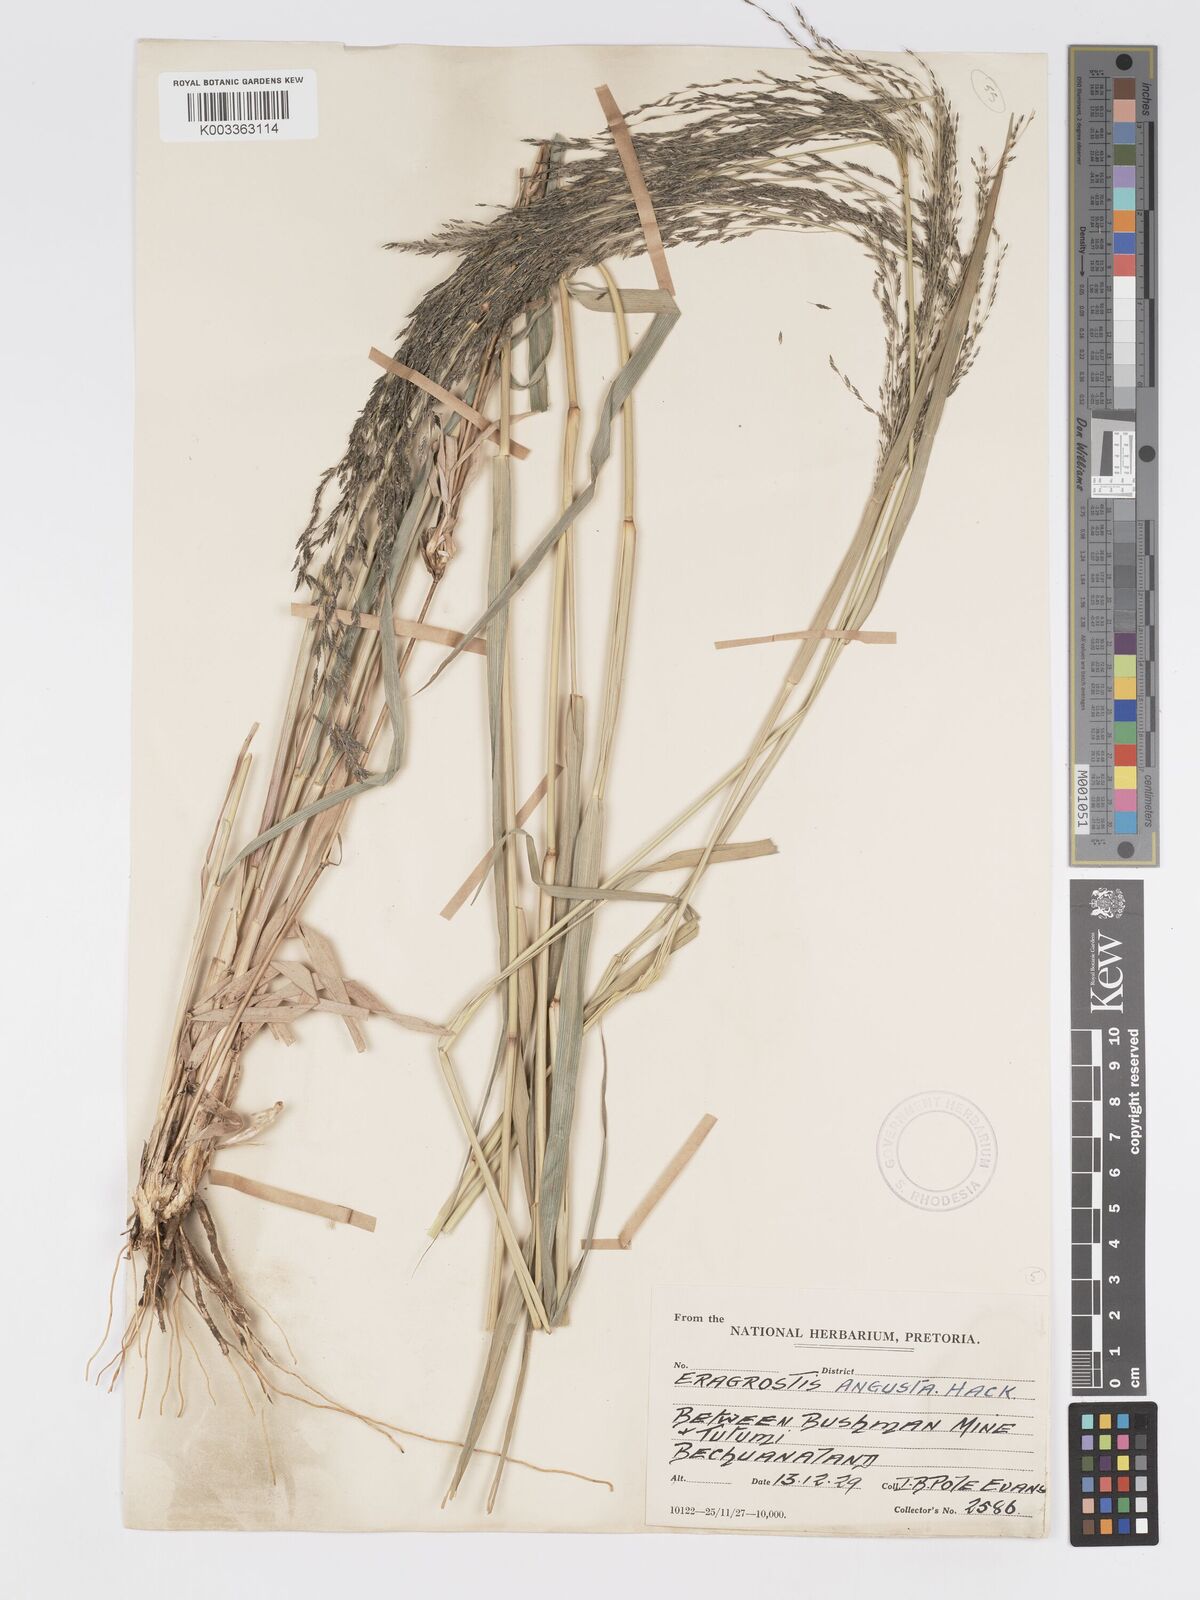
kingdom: Plantae
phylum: Tracheophyta
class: Liliopsida
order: Poales
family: Poaceae
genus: Eragrostis
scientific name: Eragrostis cylindriflora
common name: Cylinderflower lovegrass
